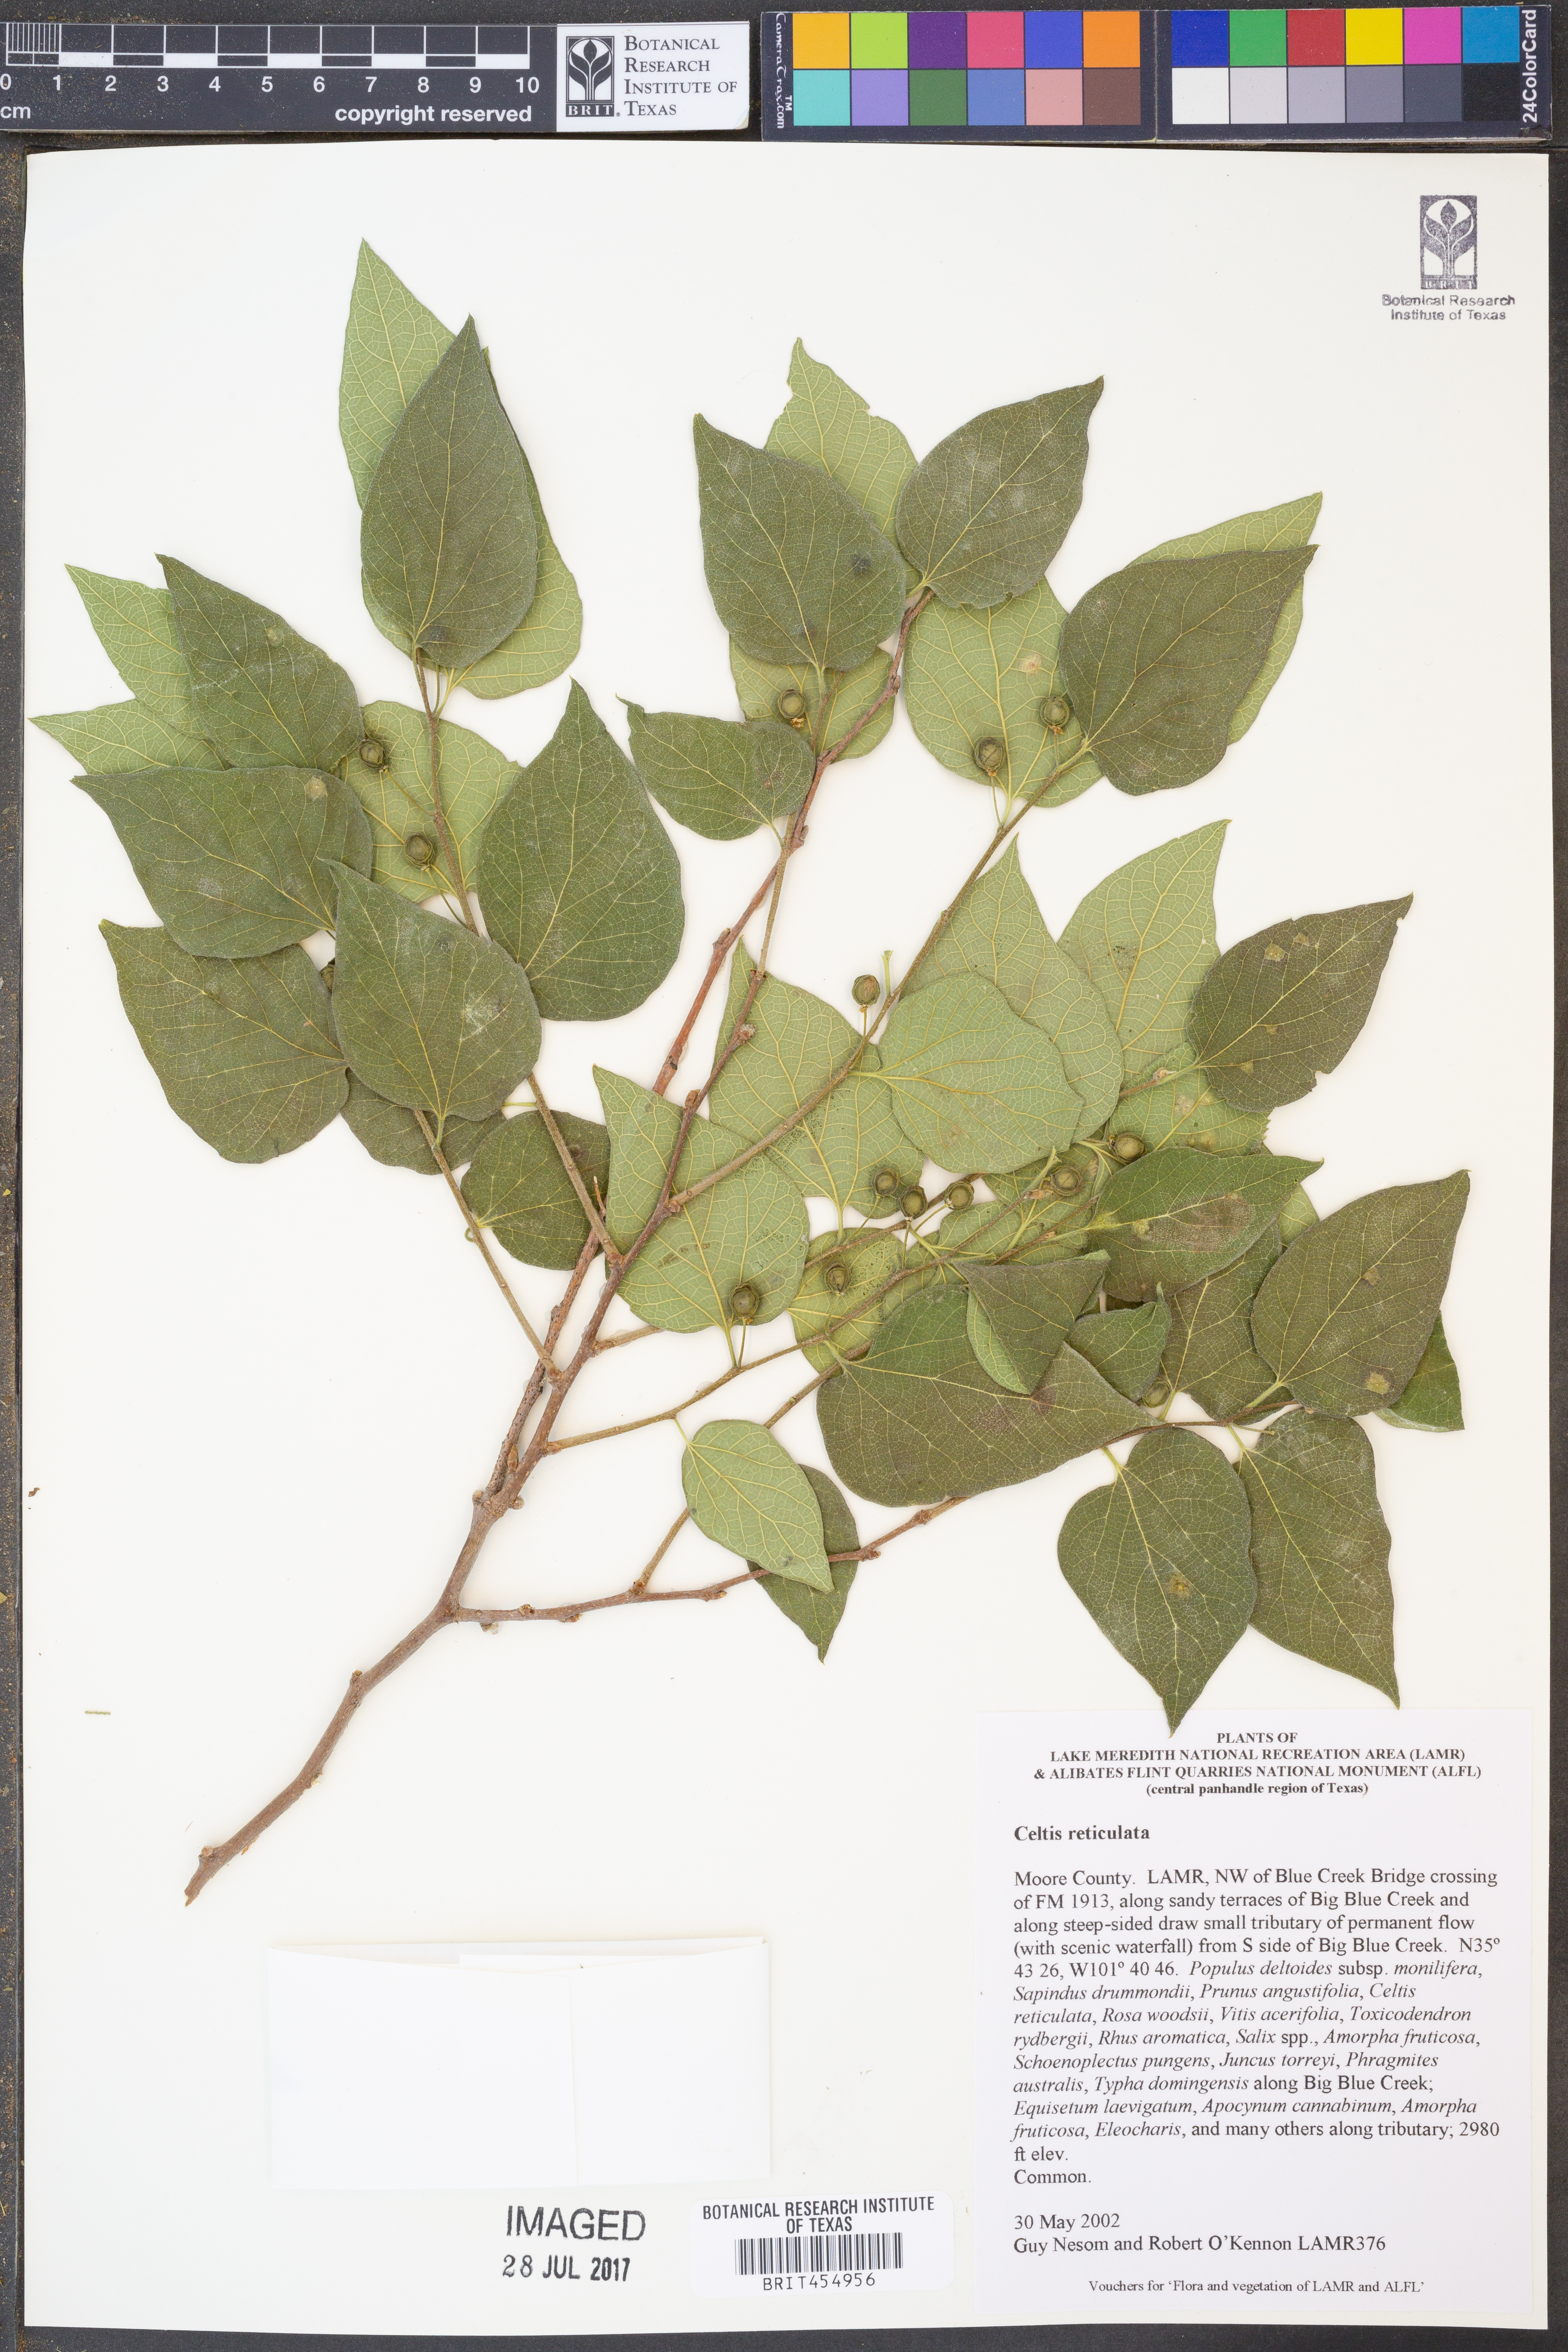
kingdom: Plantae
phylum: Tracheophyta
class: Magnoliopsida
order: Rosales
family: Cannabaceae
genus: Celtis
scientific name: Celtis reticulata
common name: Netleaf hackberry
